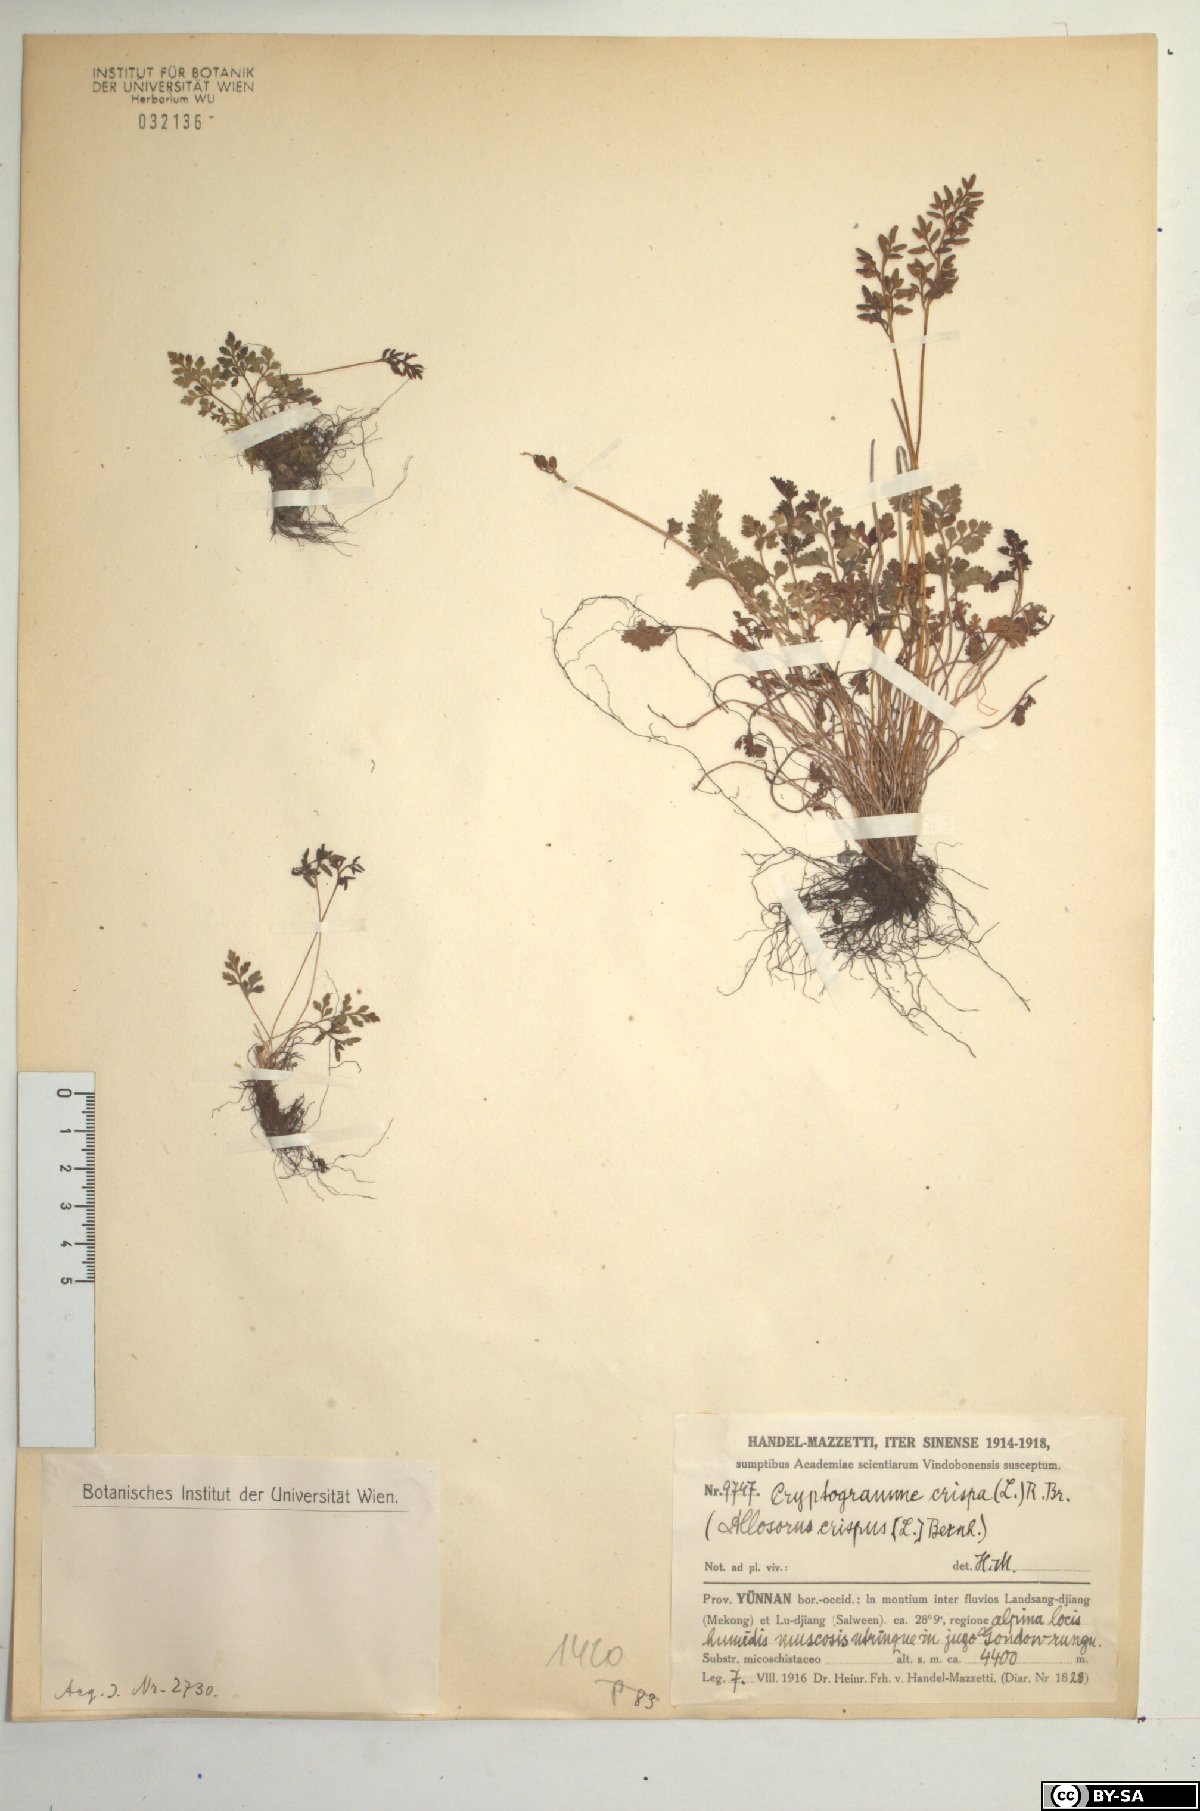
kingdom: Plantae
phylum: Tracheophyta
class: Polypodiopsida
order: Polypodiales
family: Pteridaceae
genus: Cryptogramma
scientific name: Cryptogramma brunoniana
